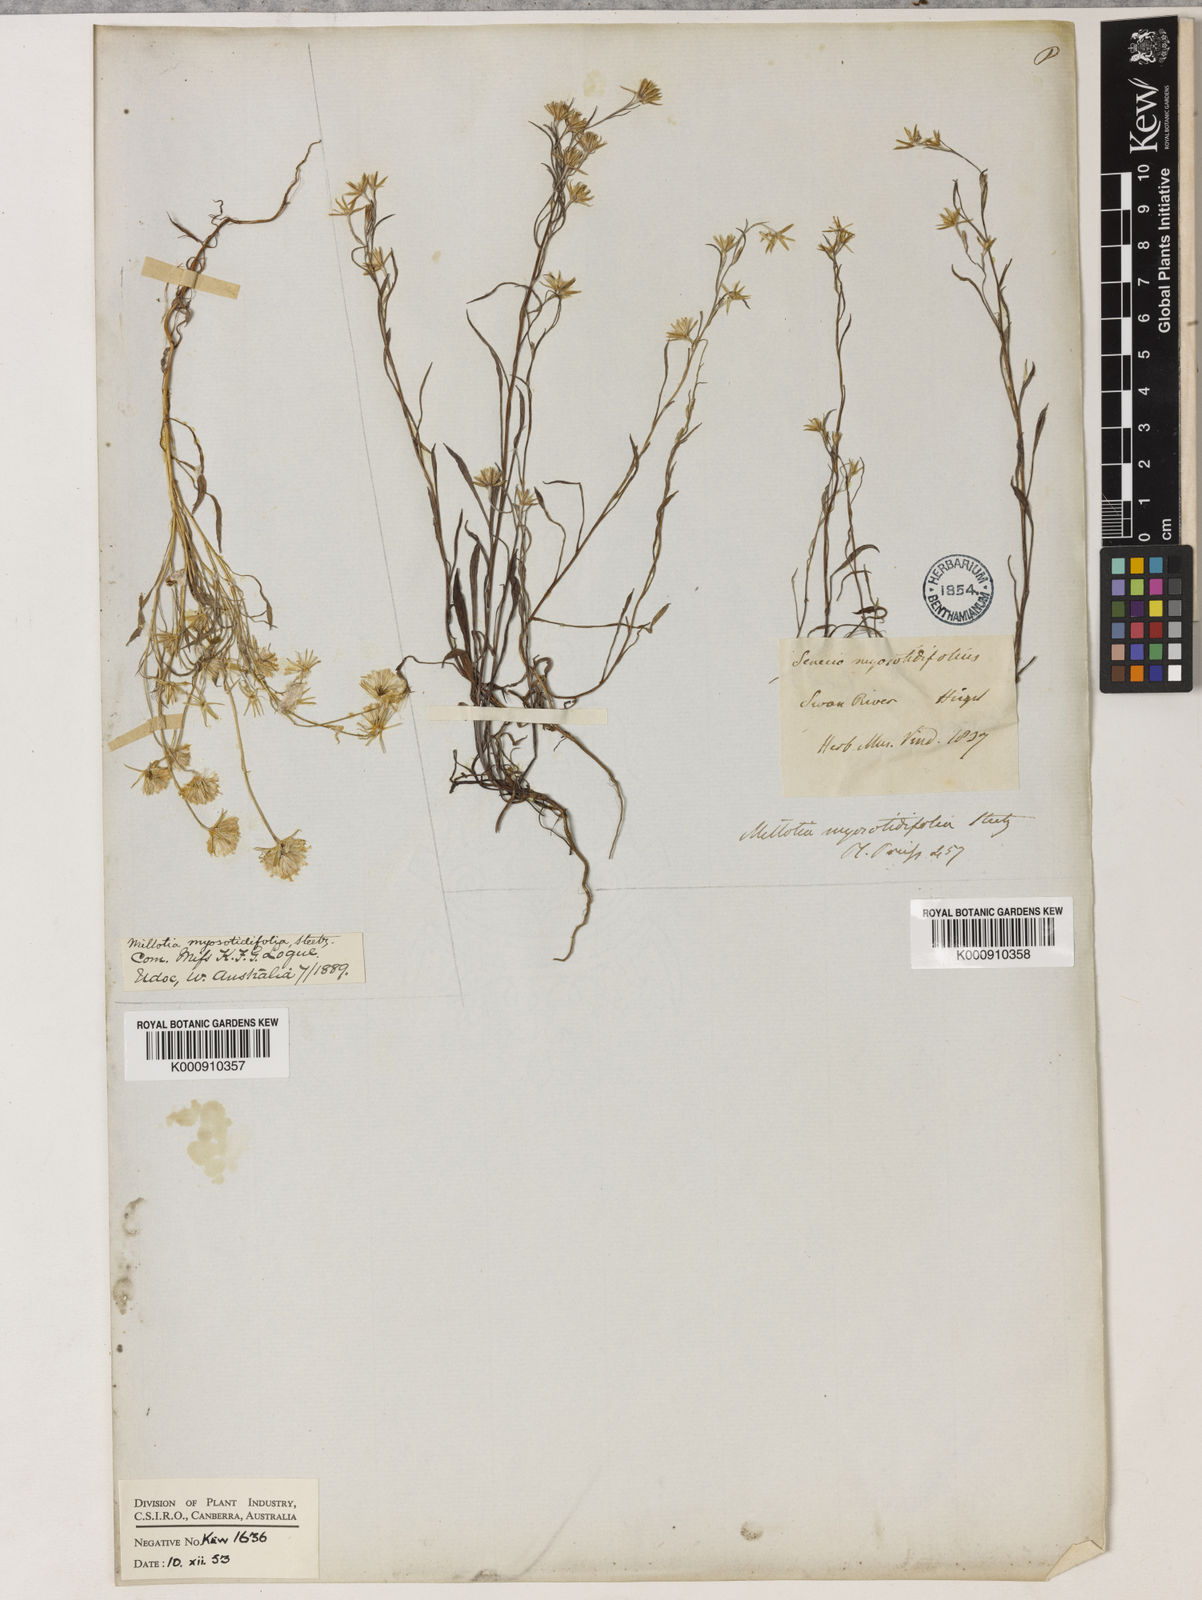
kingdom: Plantae
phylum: Tracheophyta
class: Magnoliopsida
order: Asterales
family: Asteraceae
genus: Millotia
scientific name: Millotia myosotidifolia
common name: Broad-leaved millotia
